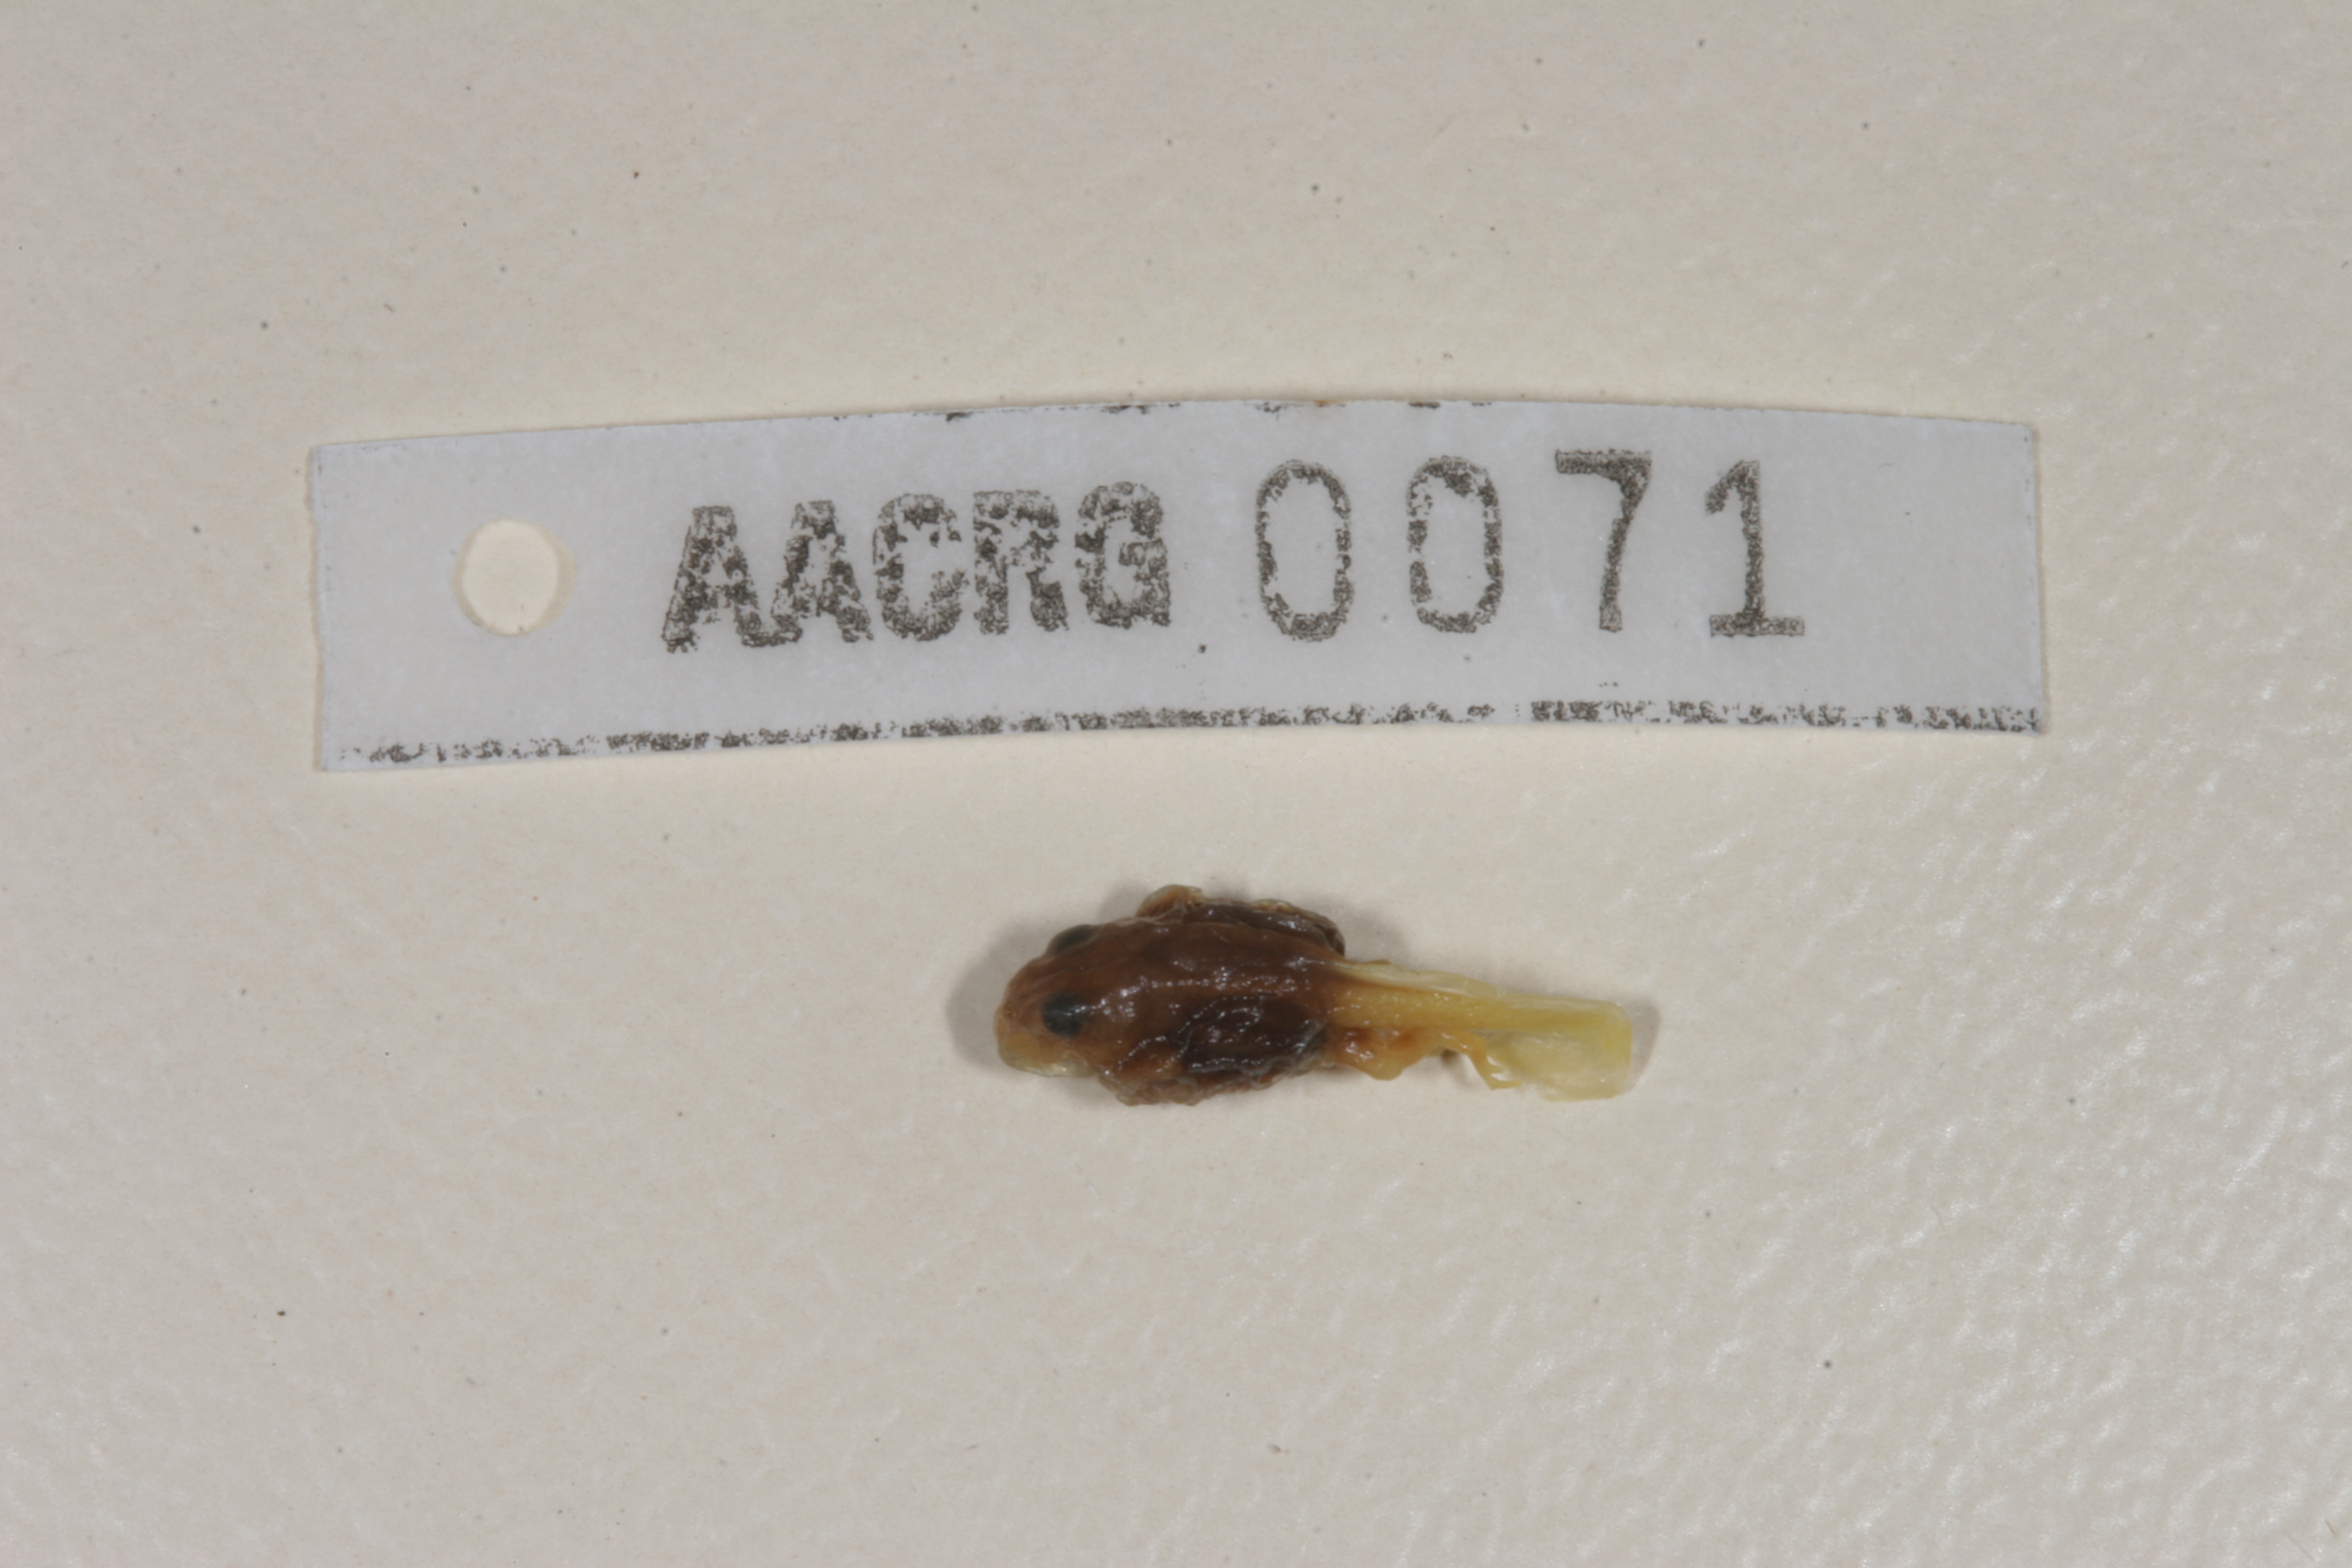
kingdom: Animalia
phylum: Chordata
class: Amphibia
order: Anura
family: Bufonidae
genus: Poyntonophrynus
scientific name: Poyntonophrynus vertebralis
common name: Southern pygmy toad
